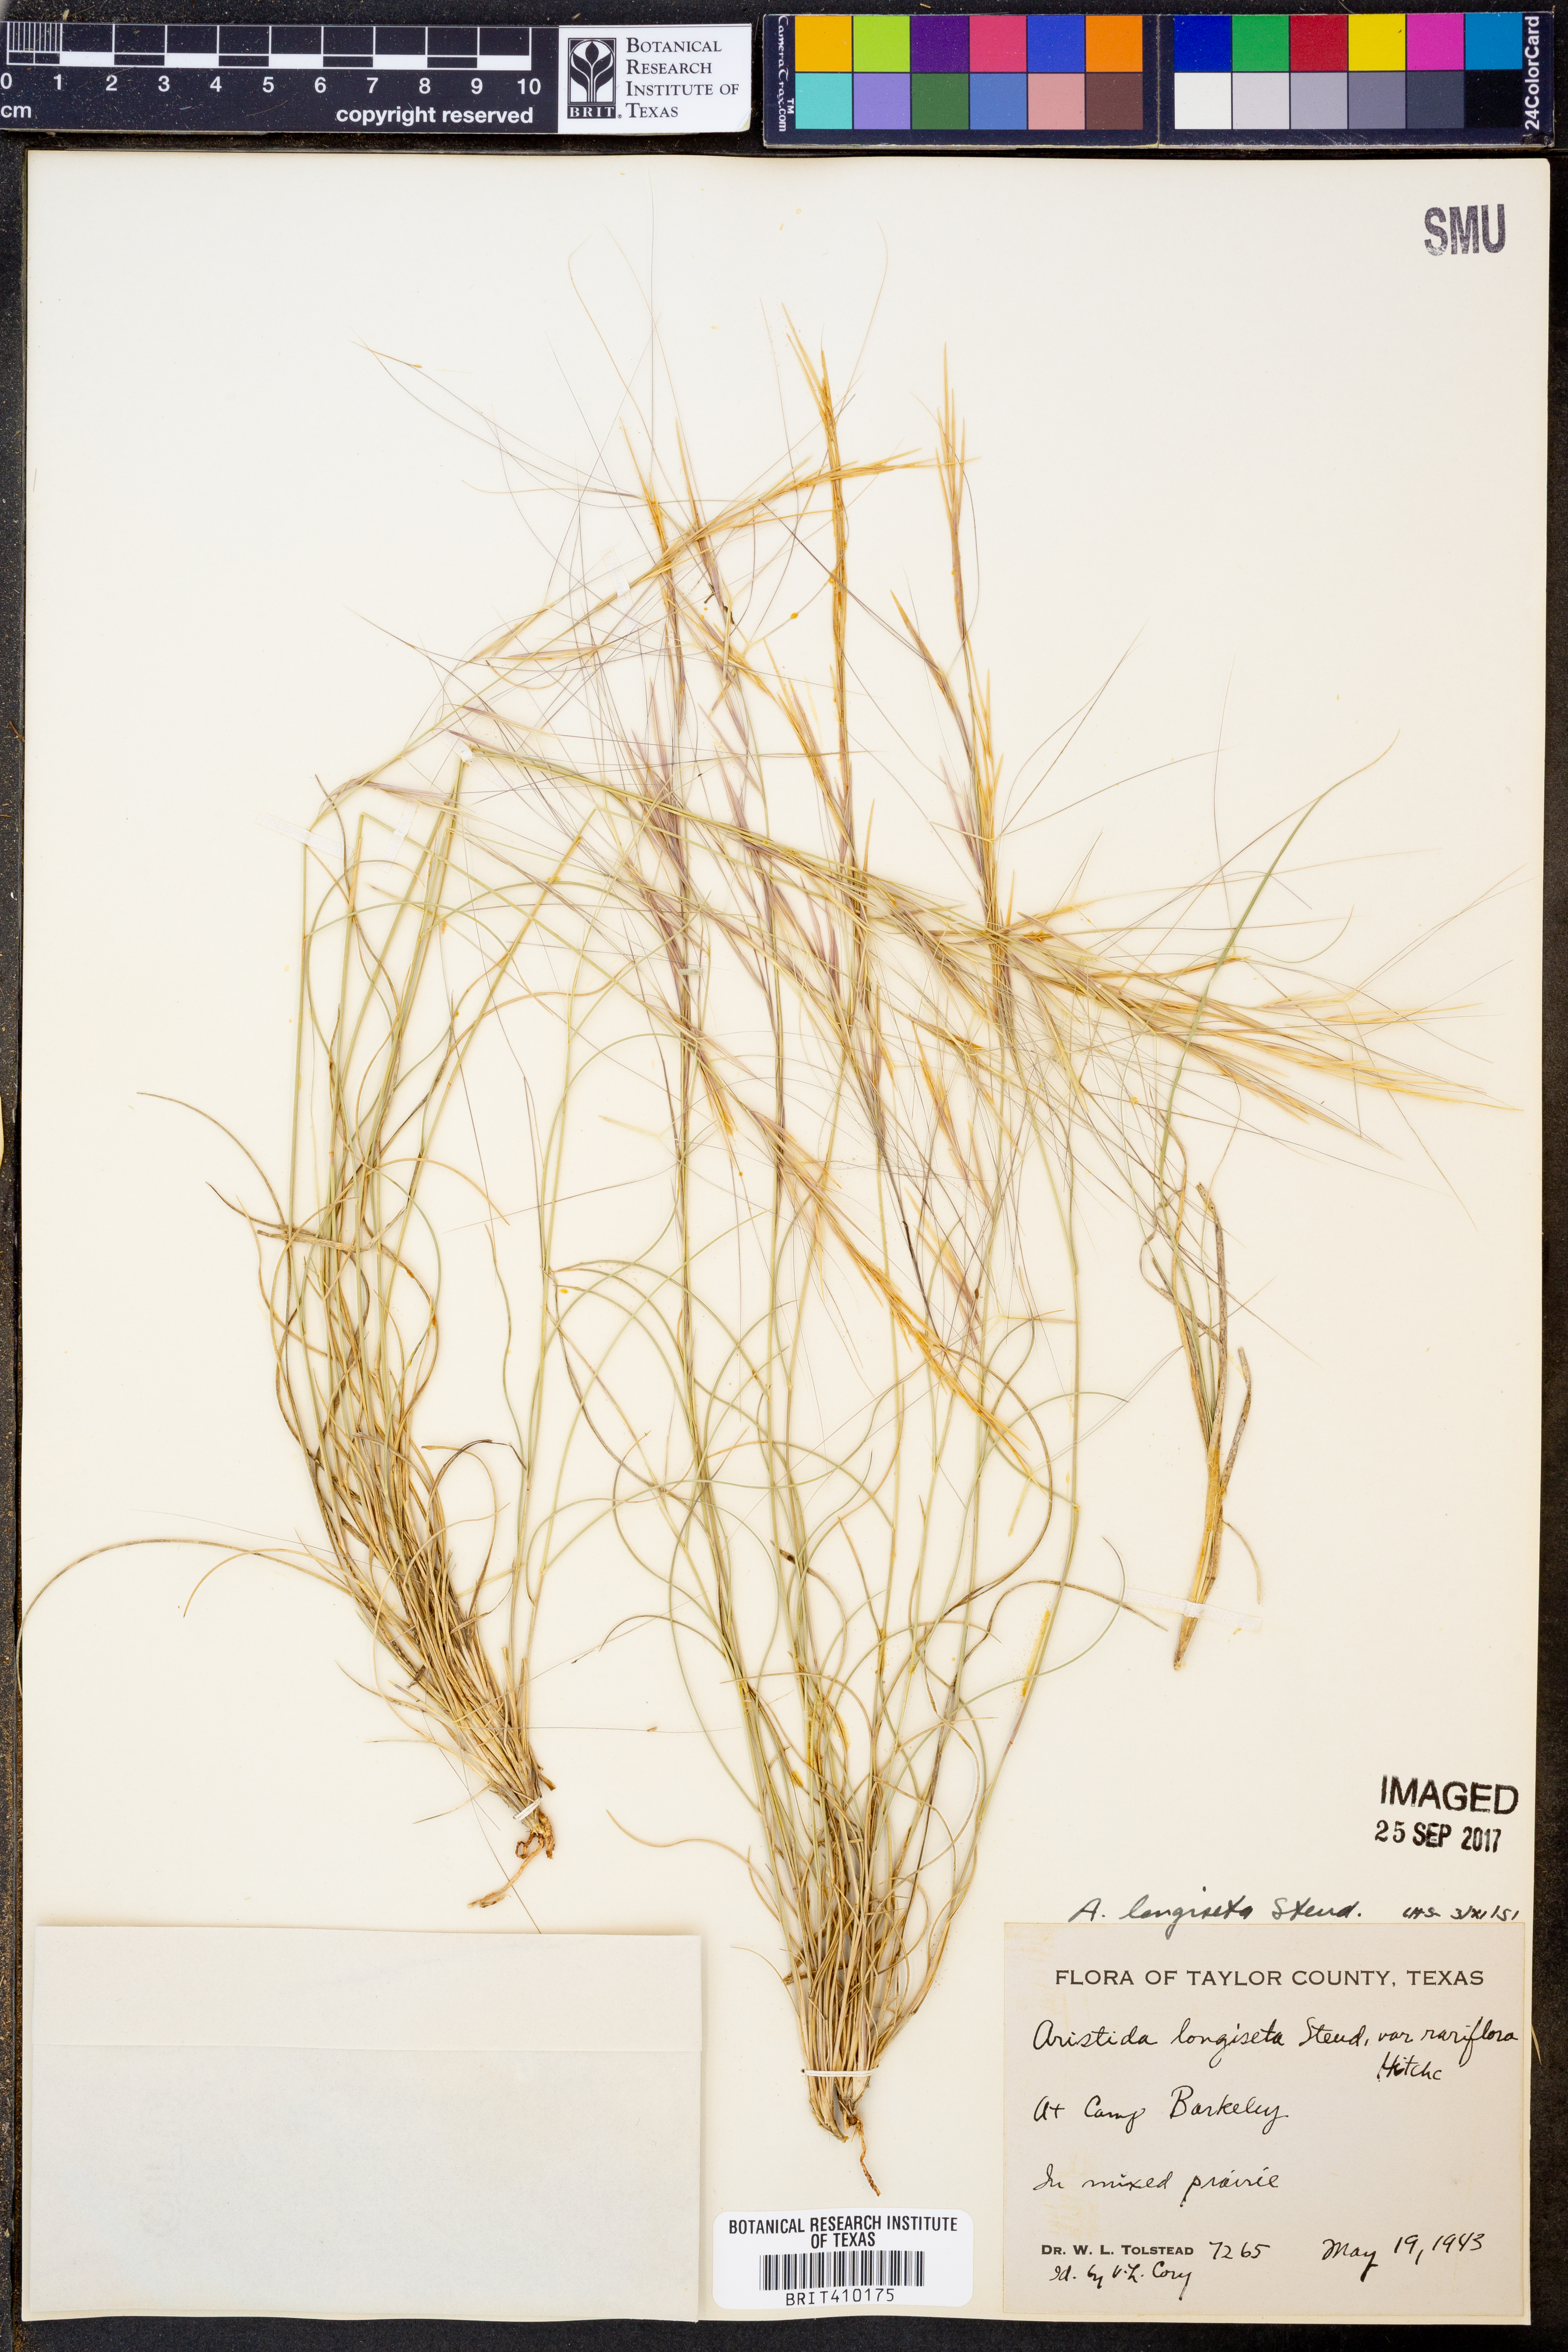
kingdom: Plantae
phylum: Tracheophyta
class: Liliopsida
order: Poales
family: Poaceae
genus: Aristida
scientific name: Aristida longiseta
